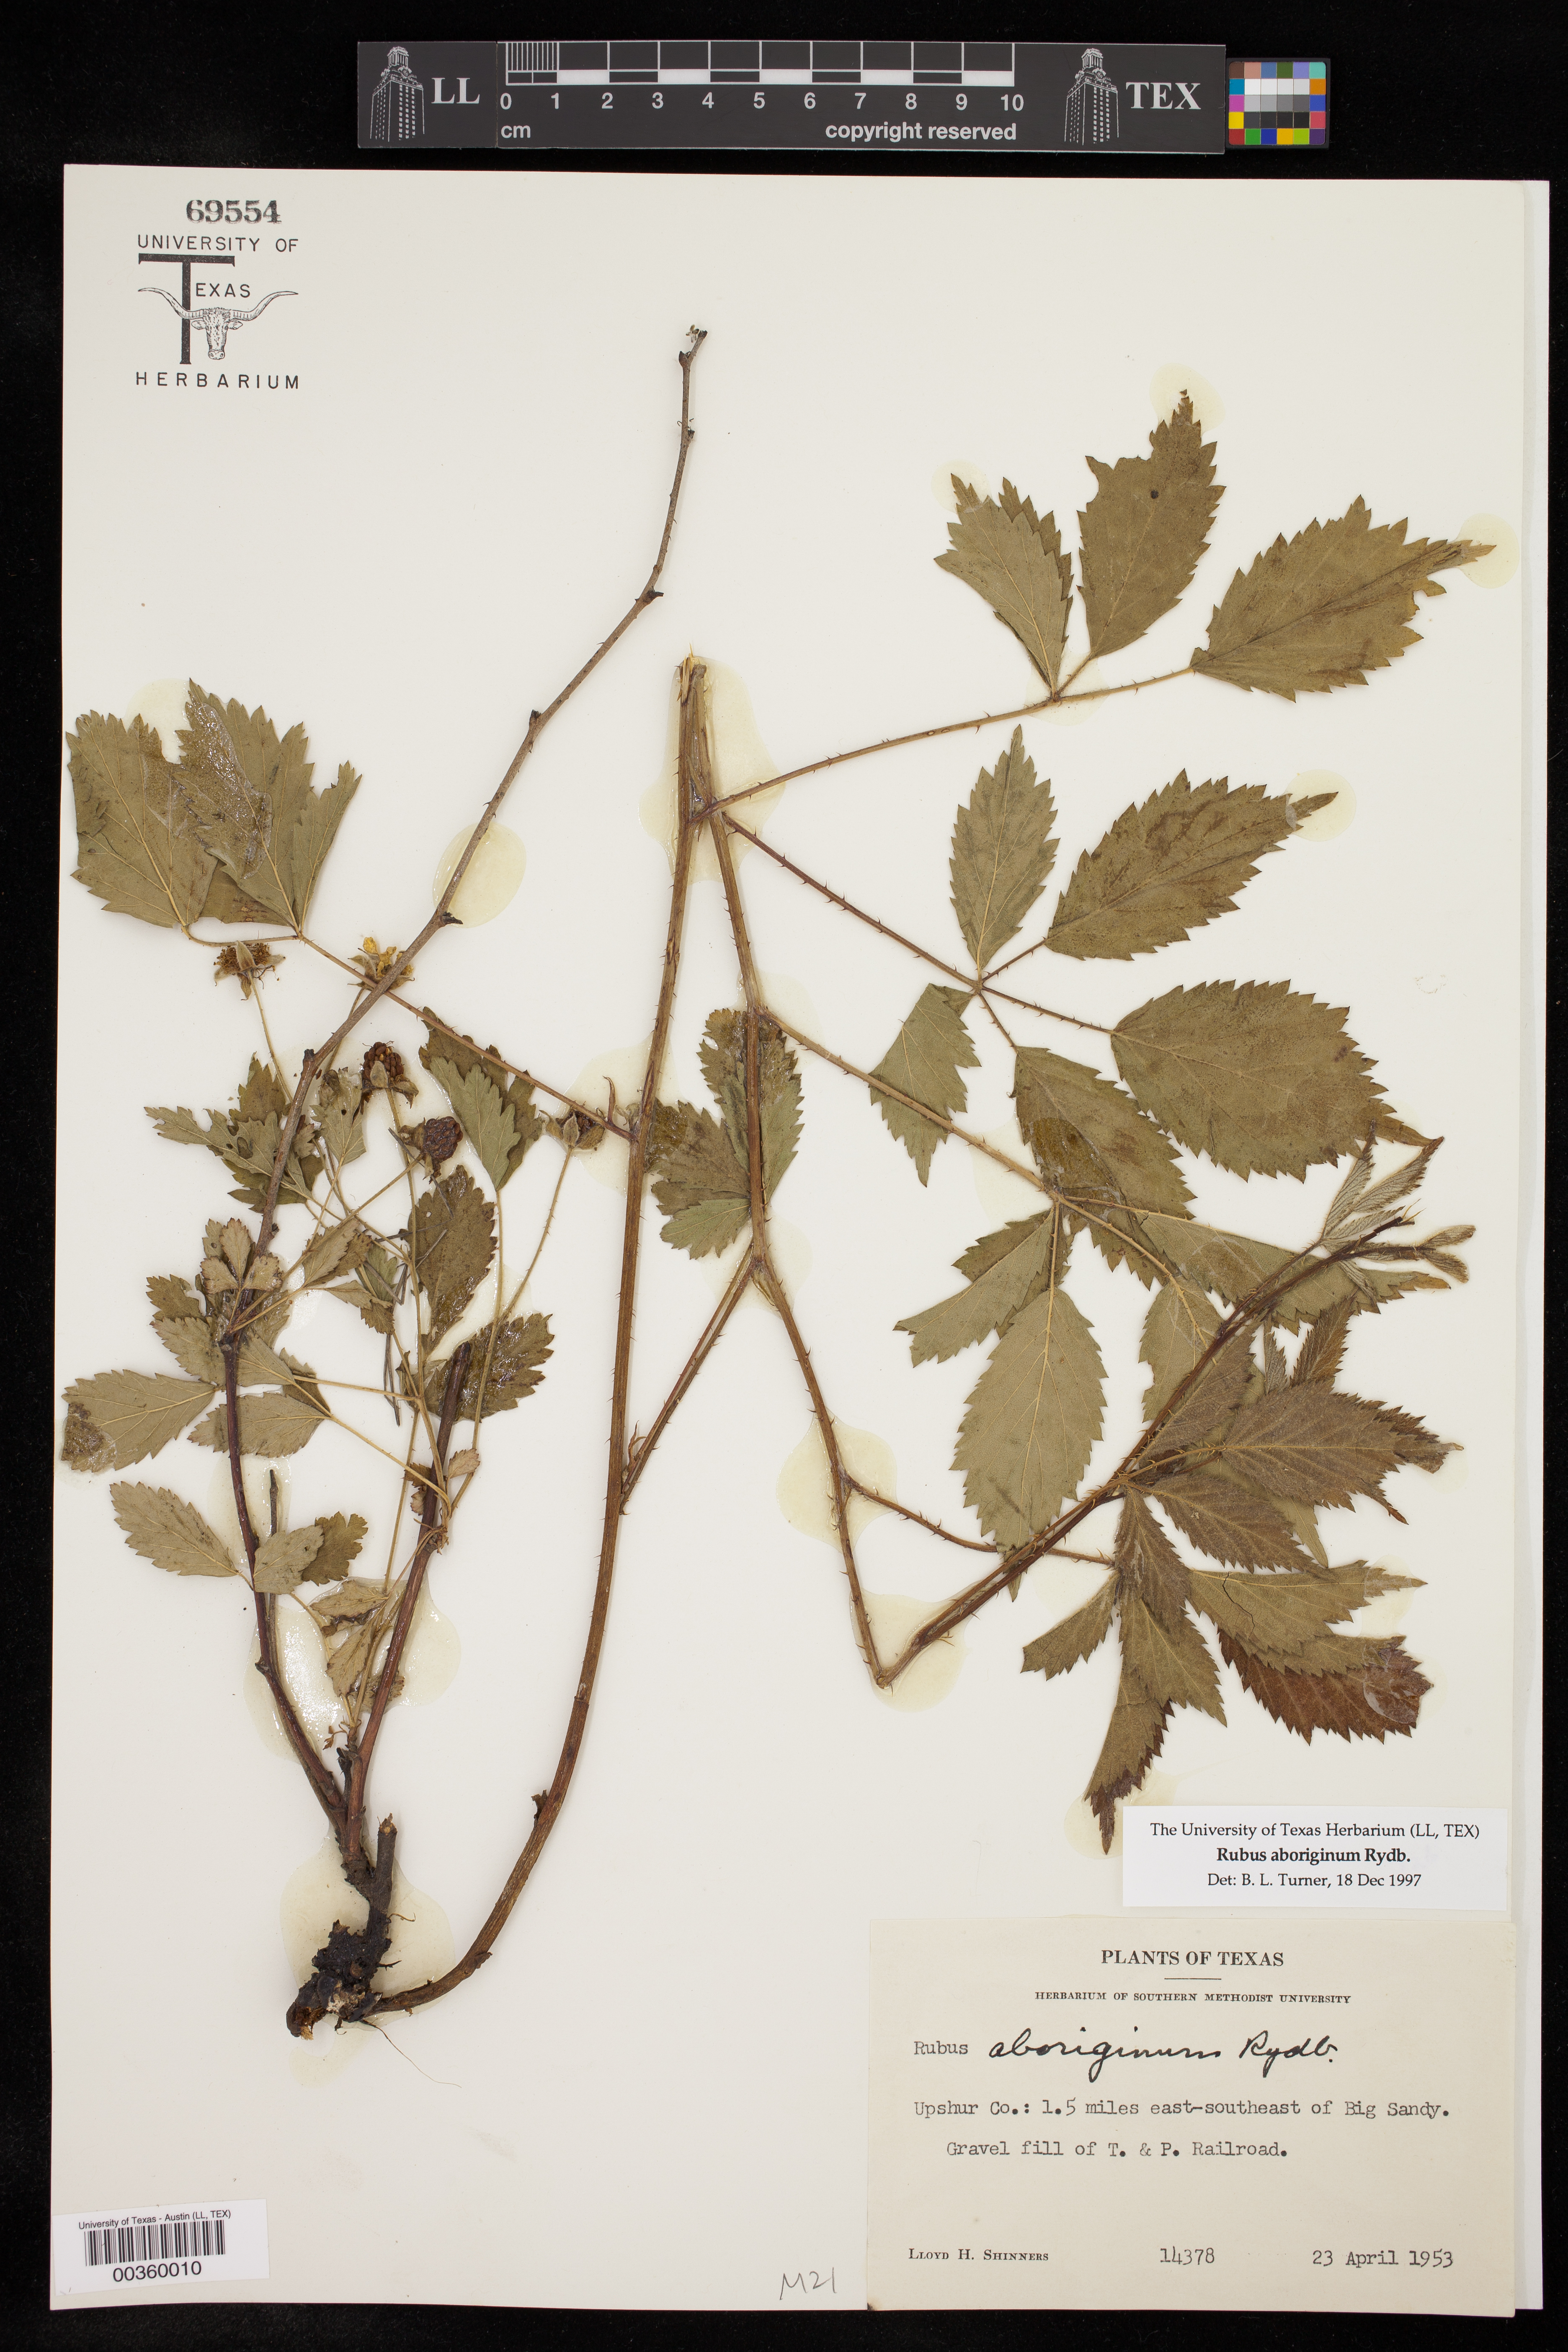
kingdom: Plantae
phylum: Tracheophyta
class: Magnoliopsida
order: Rosales
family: Rosaceae
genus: Rubus
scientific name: Rubus aboriginum
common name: Mayes dewberry
